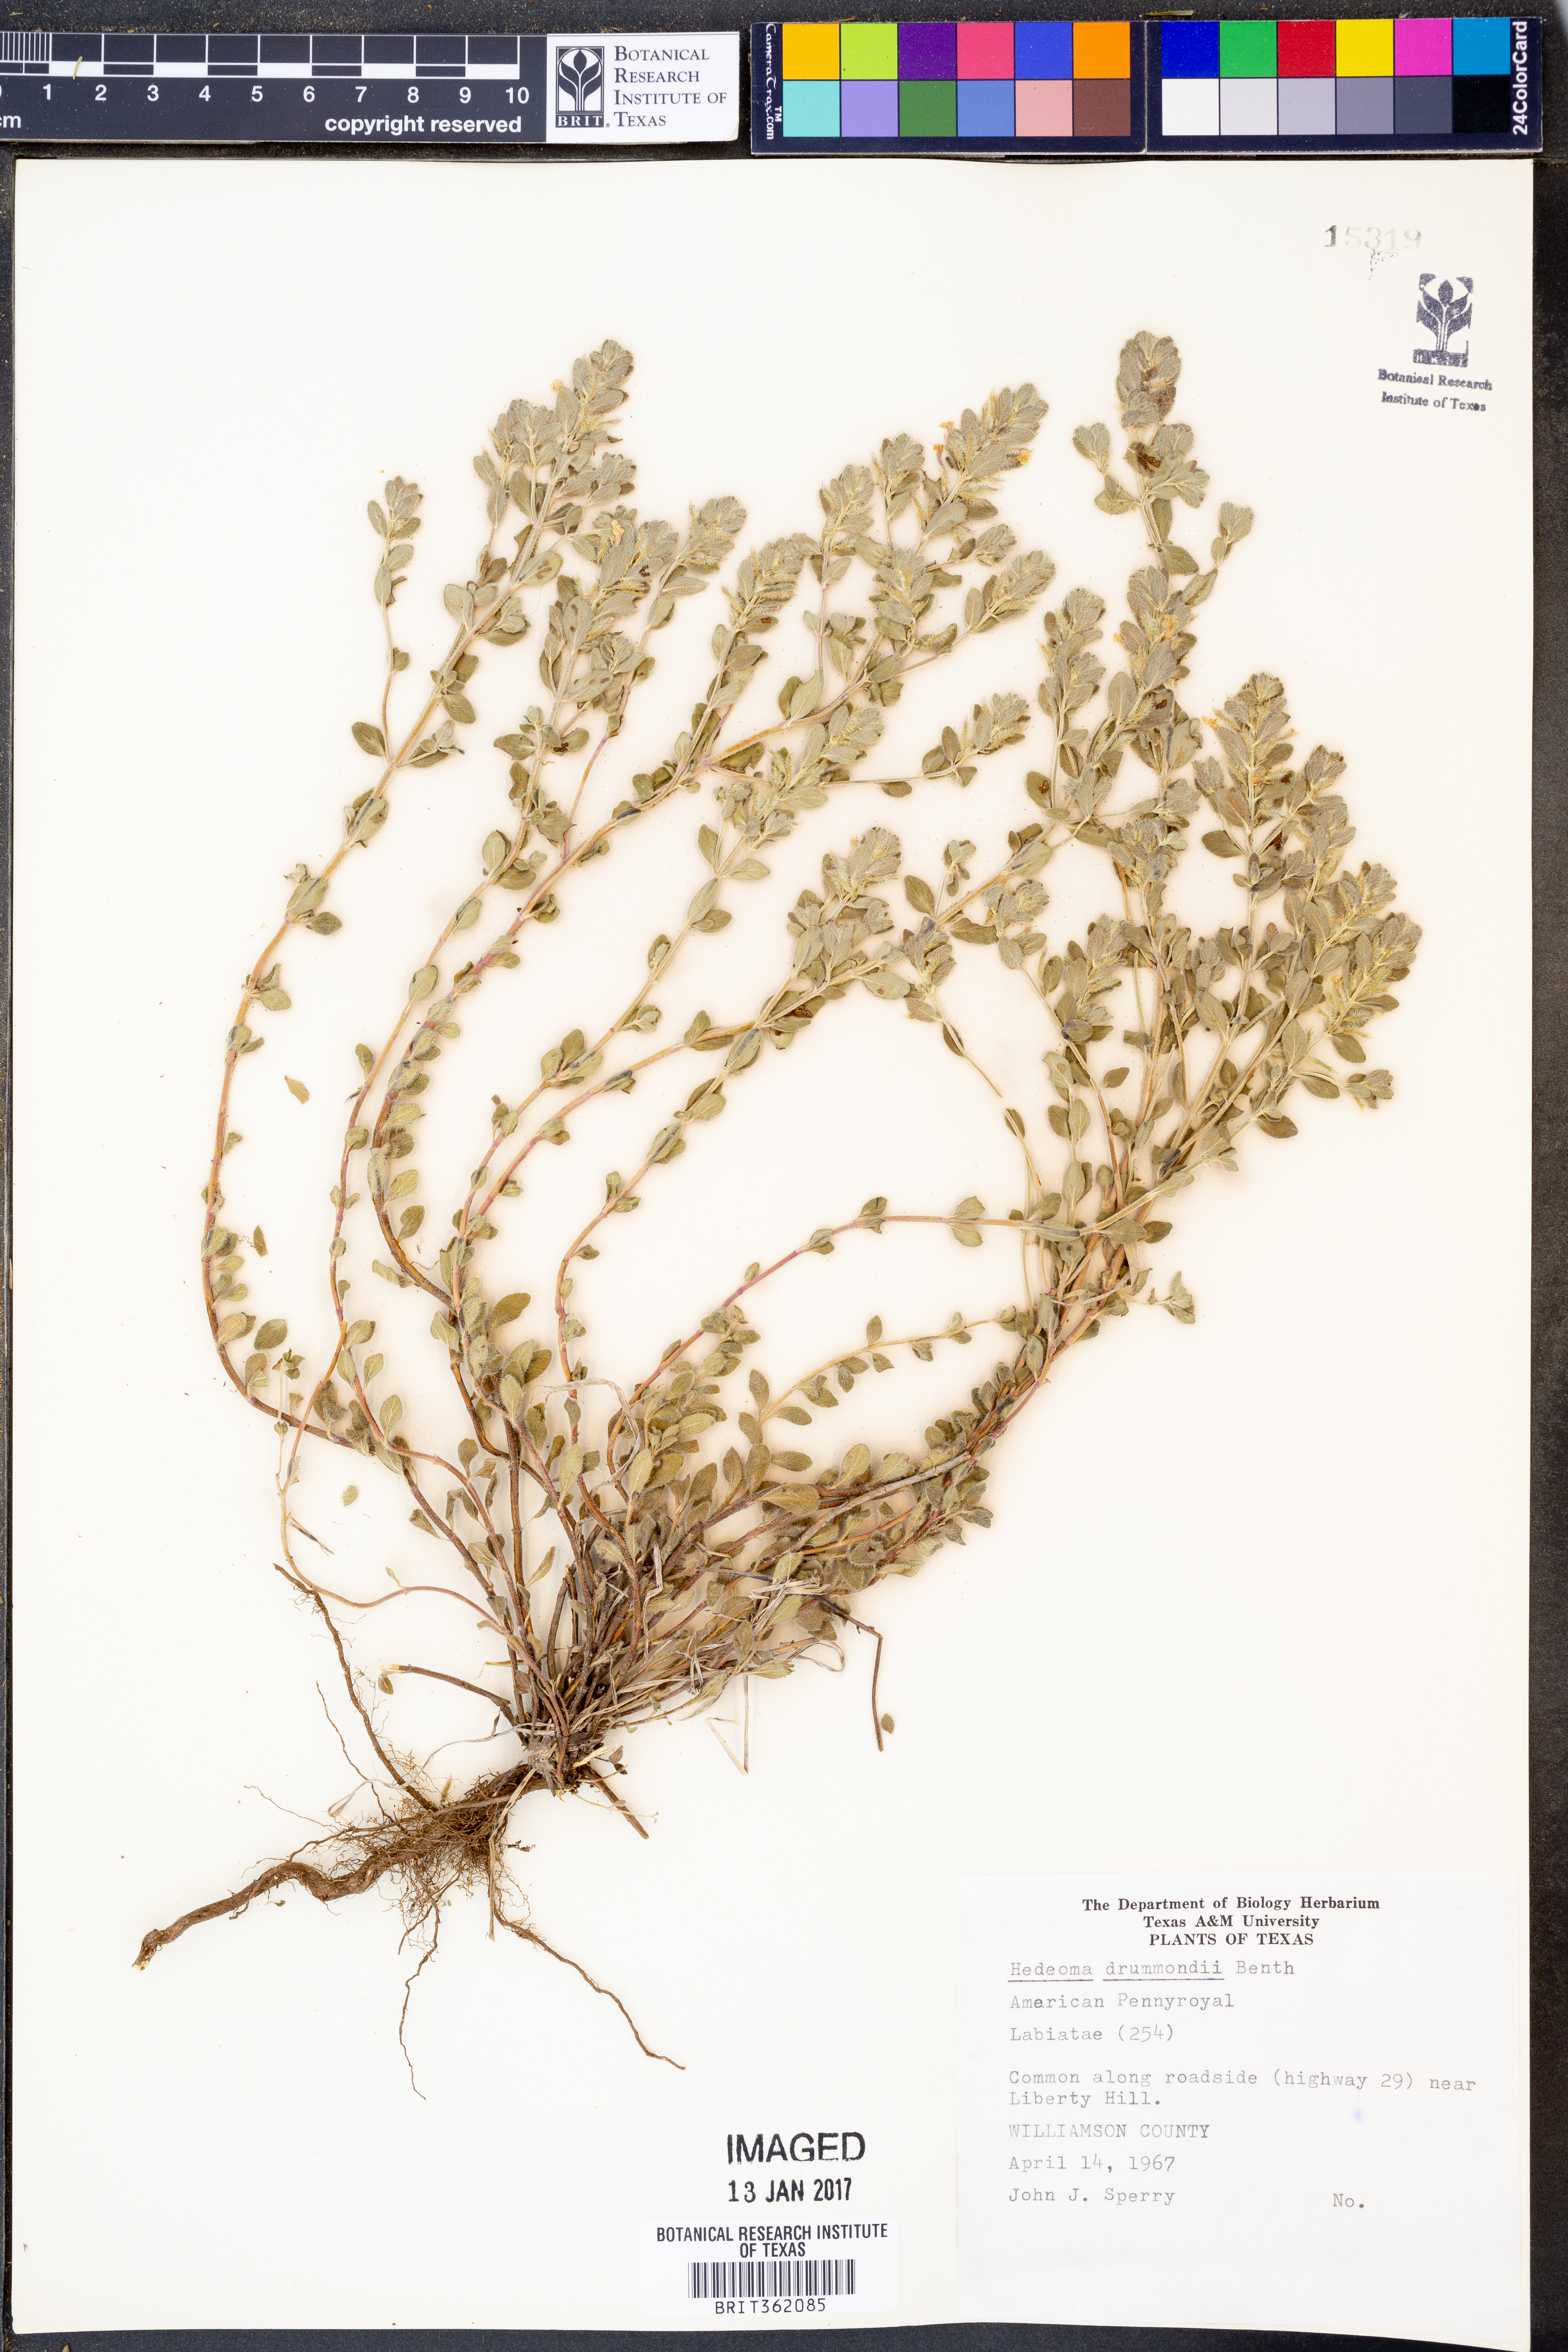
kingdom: Plantae
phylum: Tracheophyta
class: Magnoliopsida
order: Lamiales
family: Lamiaceae
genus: Hedeoma
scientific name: Hedeoma drummondii
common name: New mexico pennyroyal
